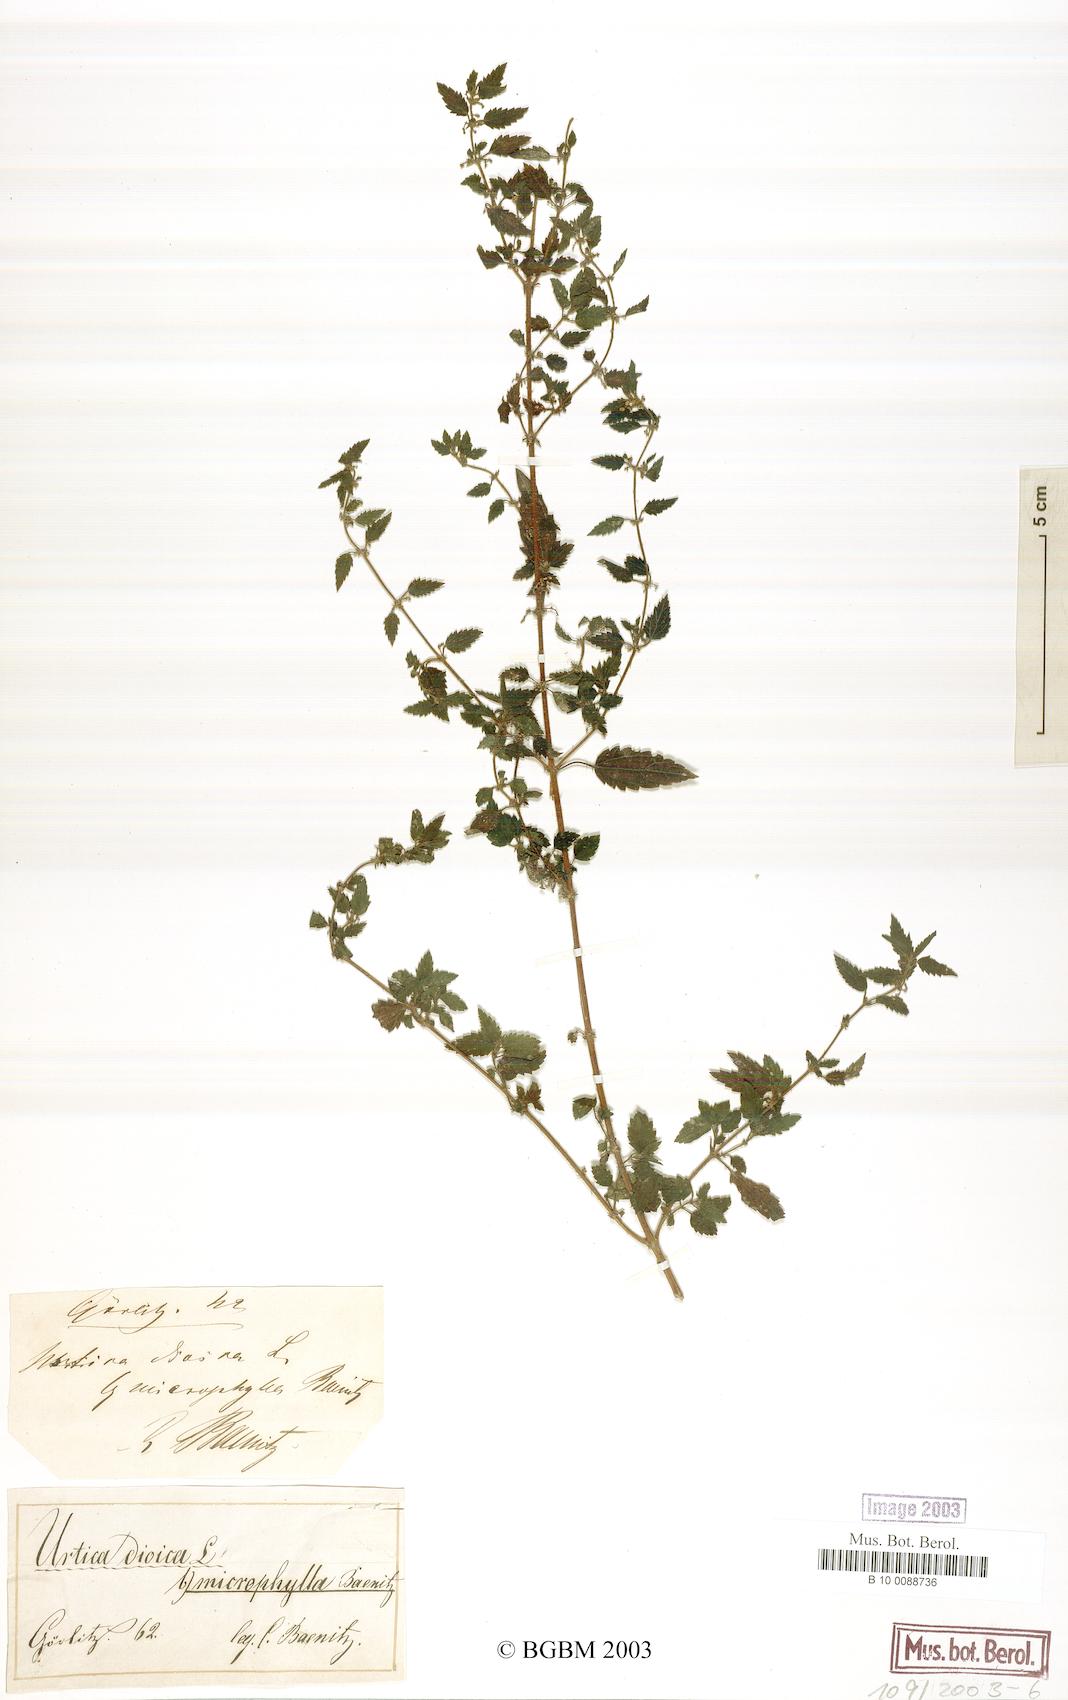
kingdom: Plantae
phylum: Tracheophyta
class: Magnoliopsida
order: Rosales
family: Urticaceae
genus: Urtica
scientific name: Urtica dioica
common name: Common nettle
